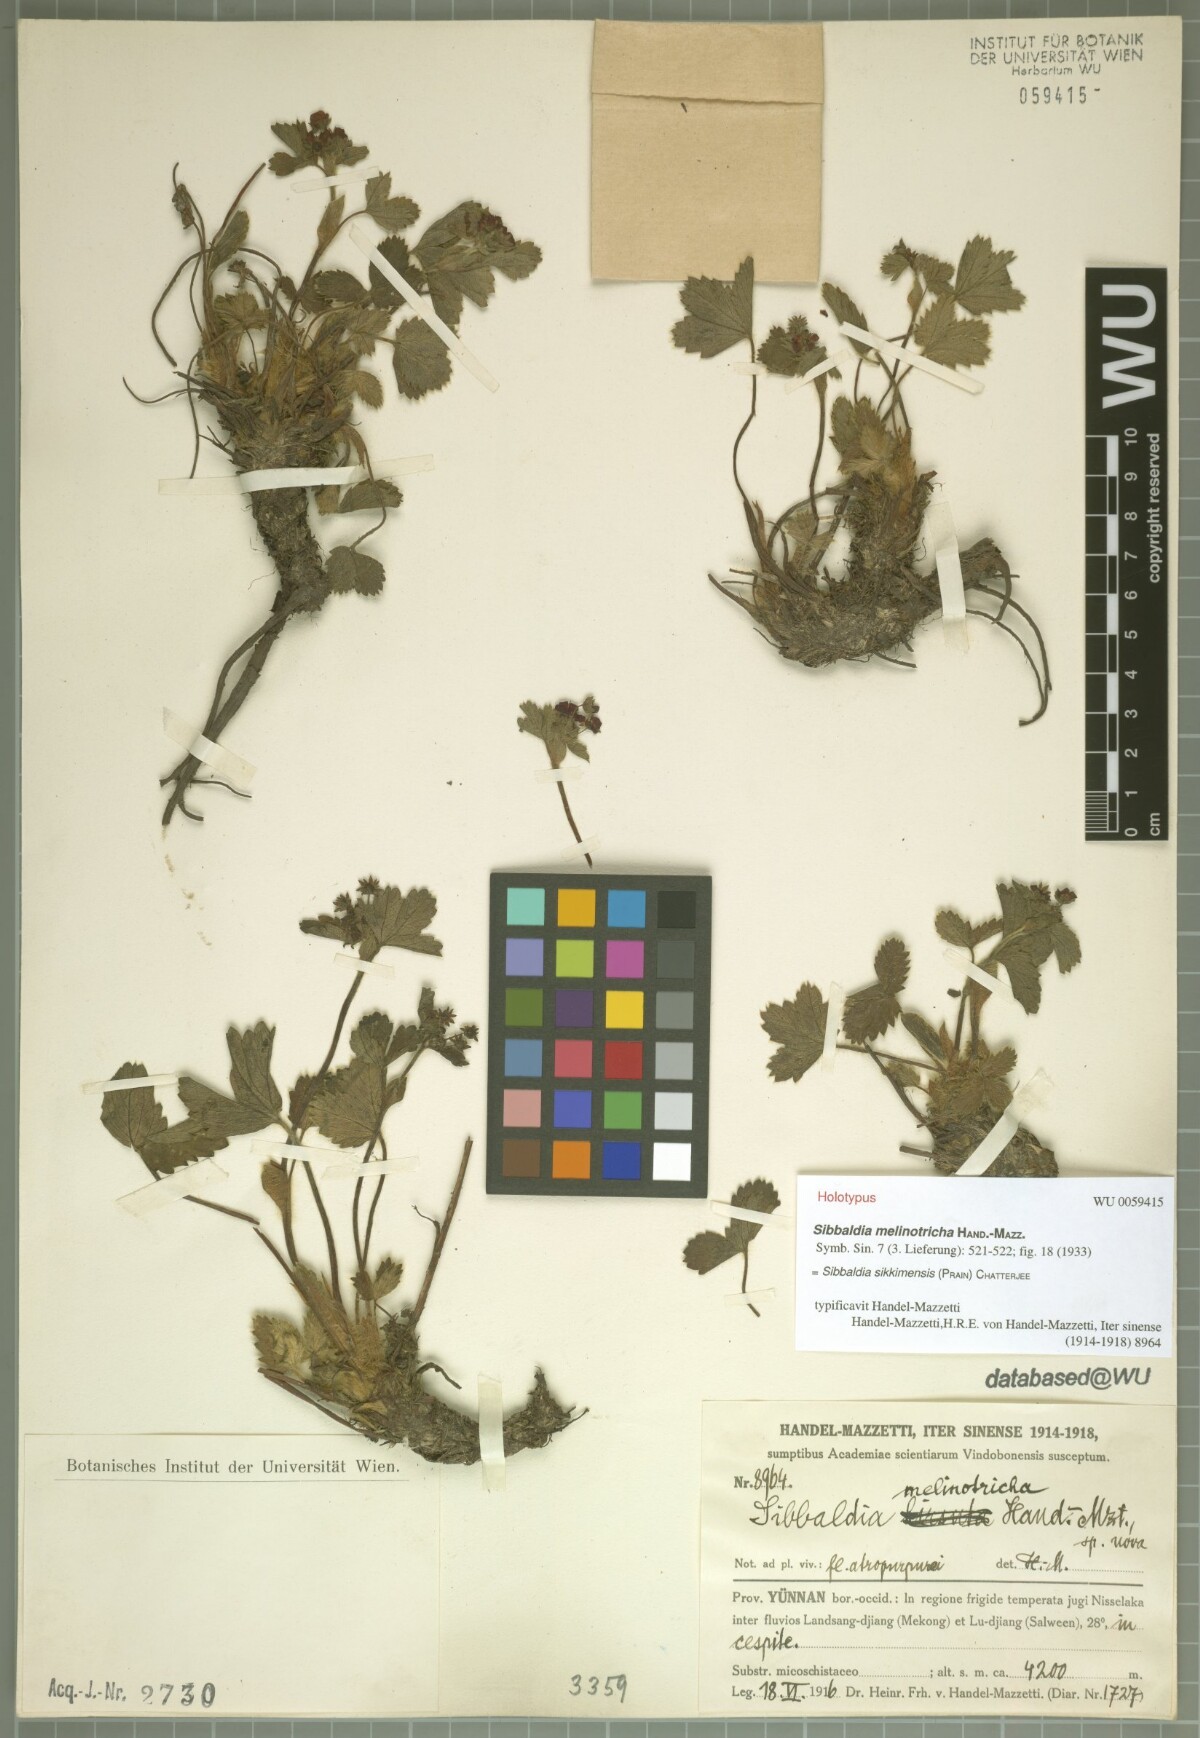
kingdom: Plantae
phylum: Tracheophyta
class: Magnoliopsida
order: Rosales
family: Rosaceae
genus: Potentilla
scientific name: Potentilla sikkimensis
